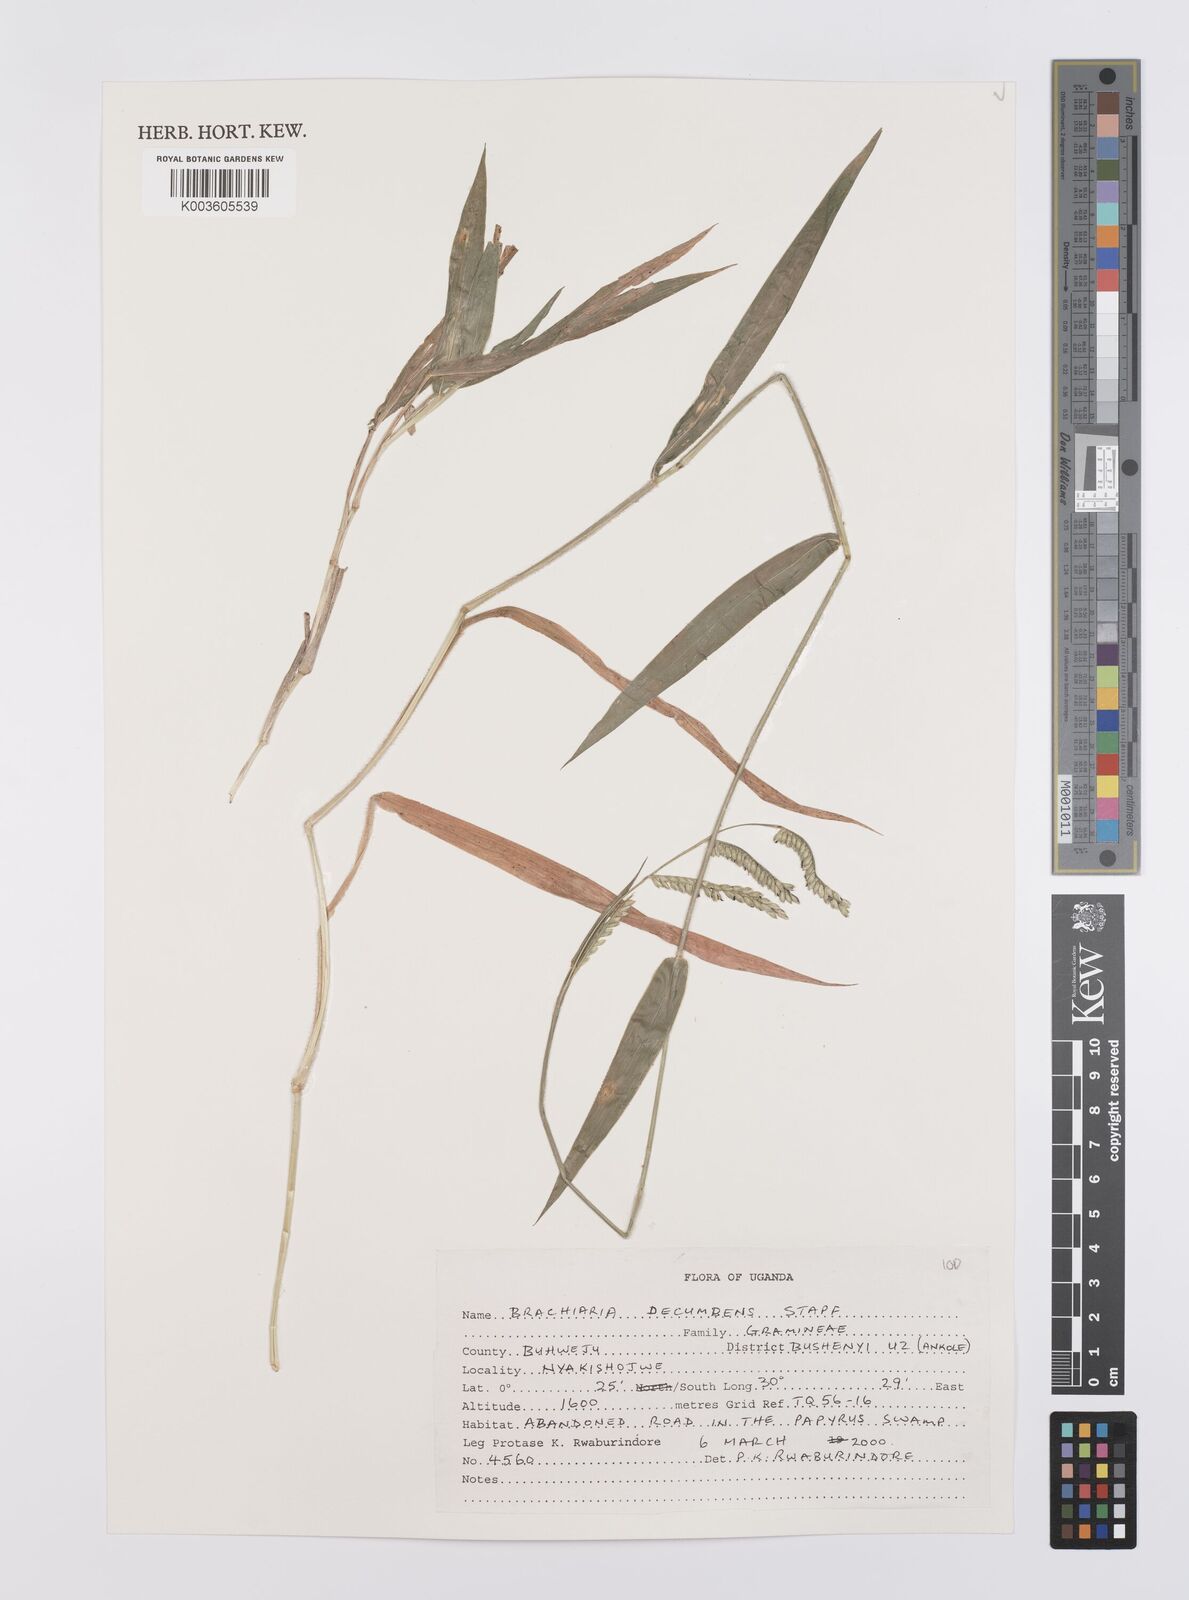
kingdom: Plantae
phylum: Tracheophyta
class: Liliopsida
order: Poales
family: Poaceae
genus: Urochloa
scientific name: Urochloa eminii
